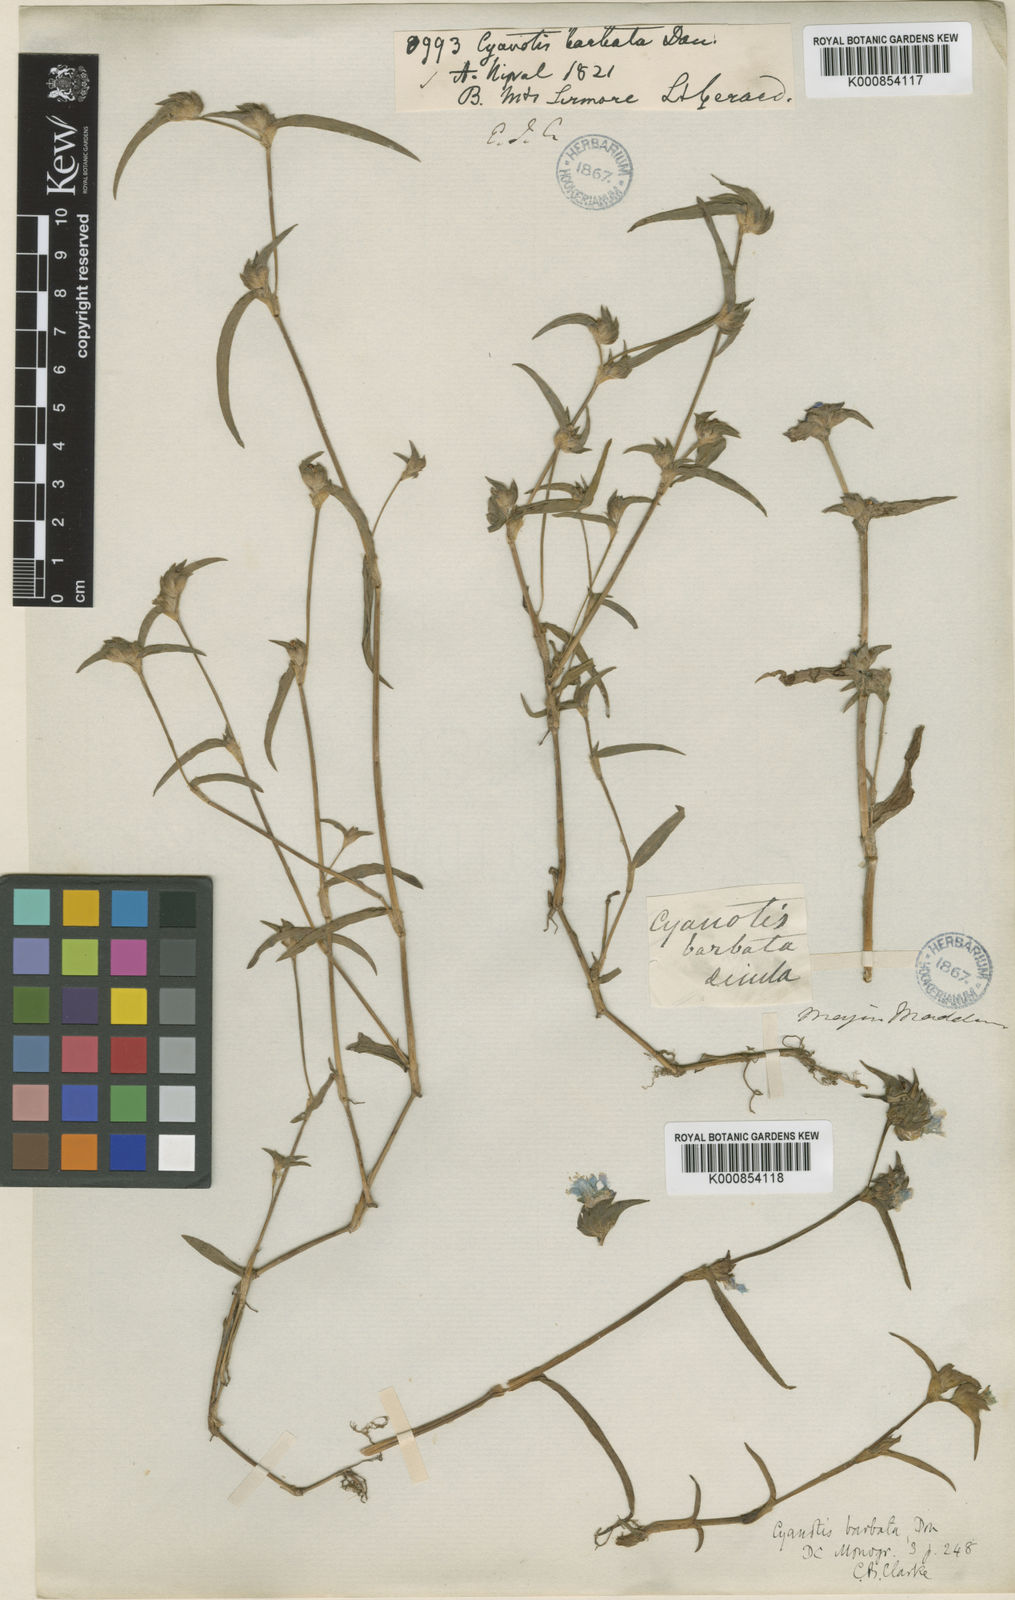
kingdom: Plantae
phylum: Tracheophyta
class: Liliopsida
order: Commelinales
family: Commelinaceae
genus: Cyanotis
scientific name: Cyanotis vaga
